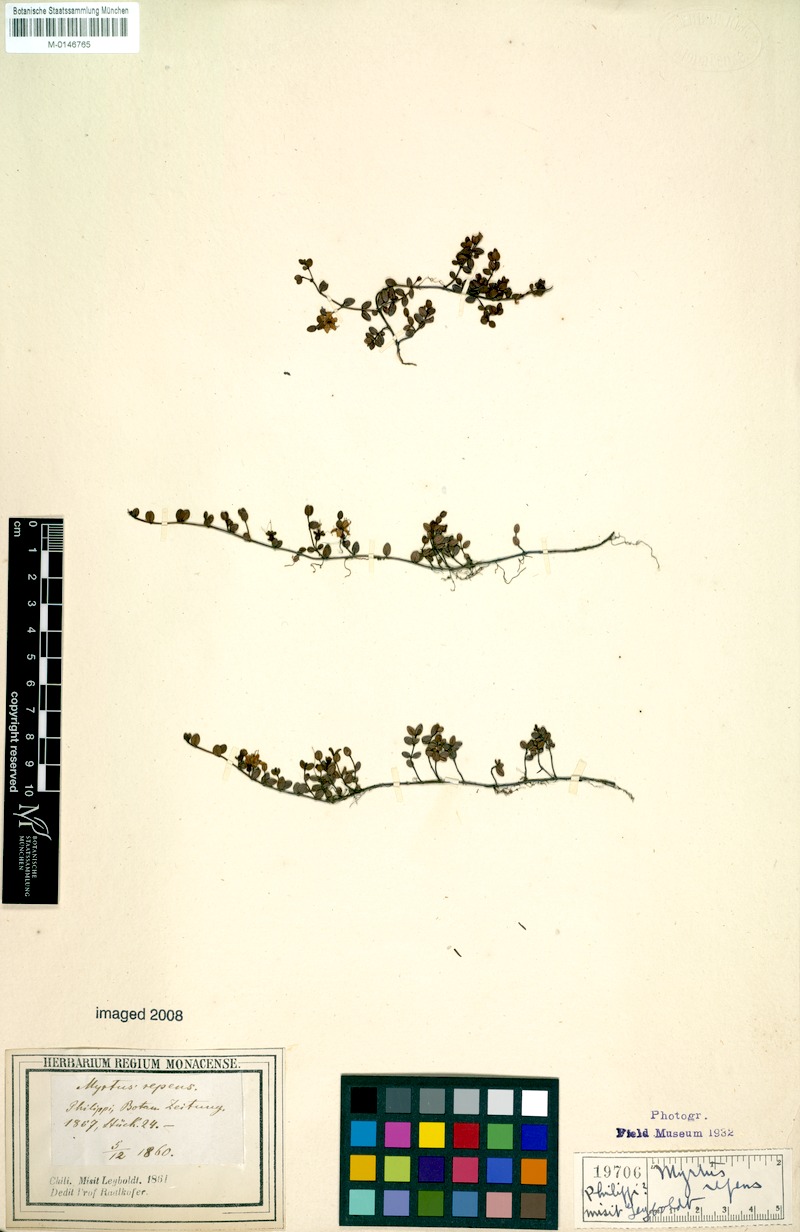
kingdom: Plantae
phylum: Tracheophyta
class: Magnoliopsida
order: Myrtales
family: Myrtaceae
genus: Myrteola
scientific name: Myrteola nummularia
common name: Cranberry-myrtle
